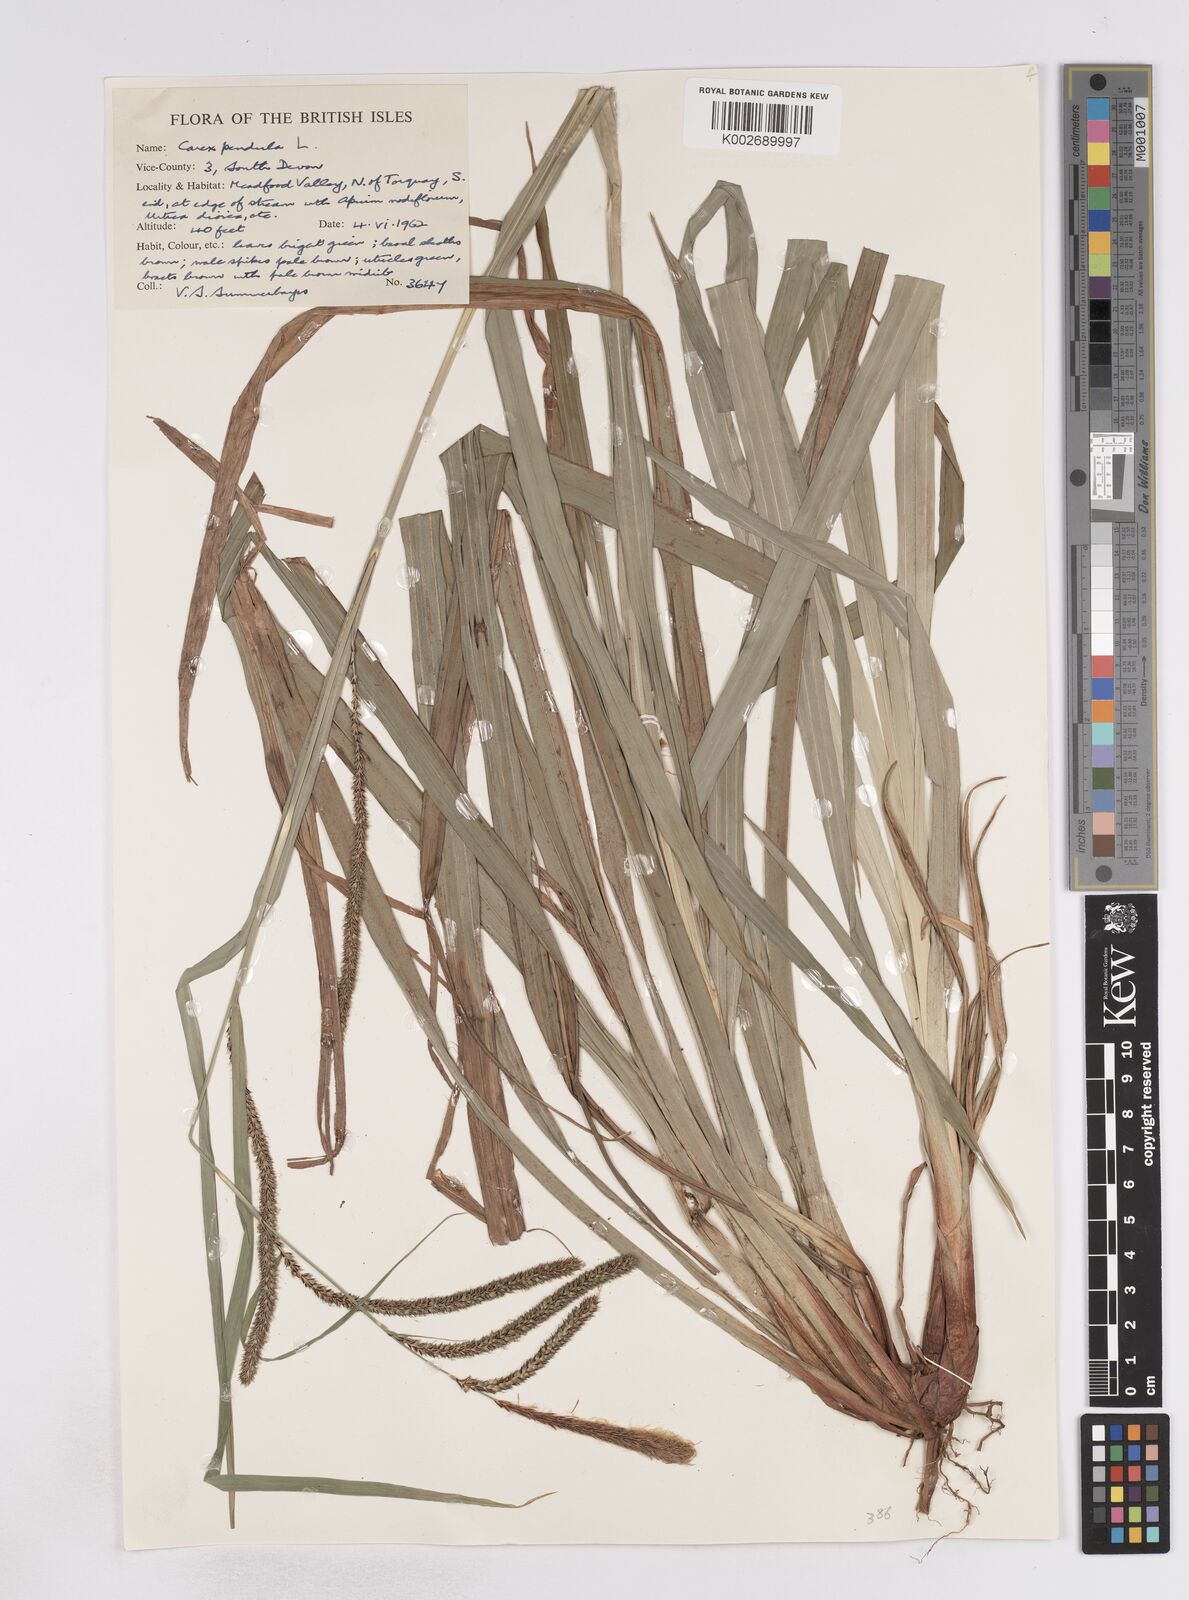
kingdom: Plantae
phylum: Tracheophyta
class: Liliopsida
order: Poales
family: Cyperaceae
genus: Carex
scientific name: Carex pendula
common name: Pendulous sedge
